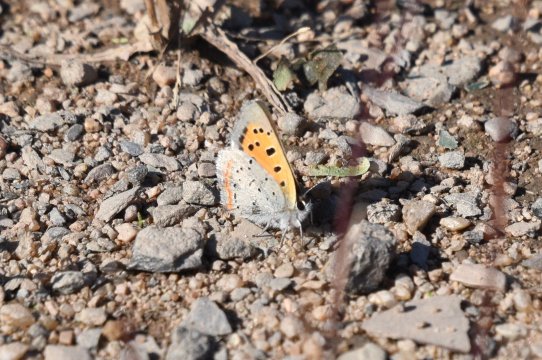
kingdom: Animalia
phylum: Arthropoda
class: Insecta
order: Lepidoptera
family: Lycaenidae
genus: Lycaena
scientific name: Lycaena phlaeas
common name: American Copper
